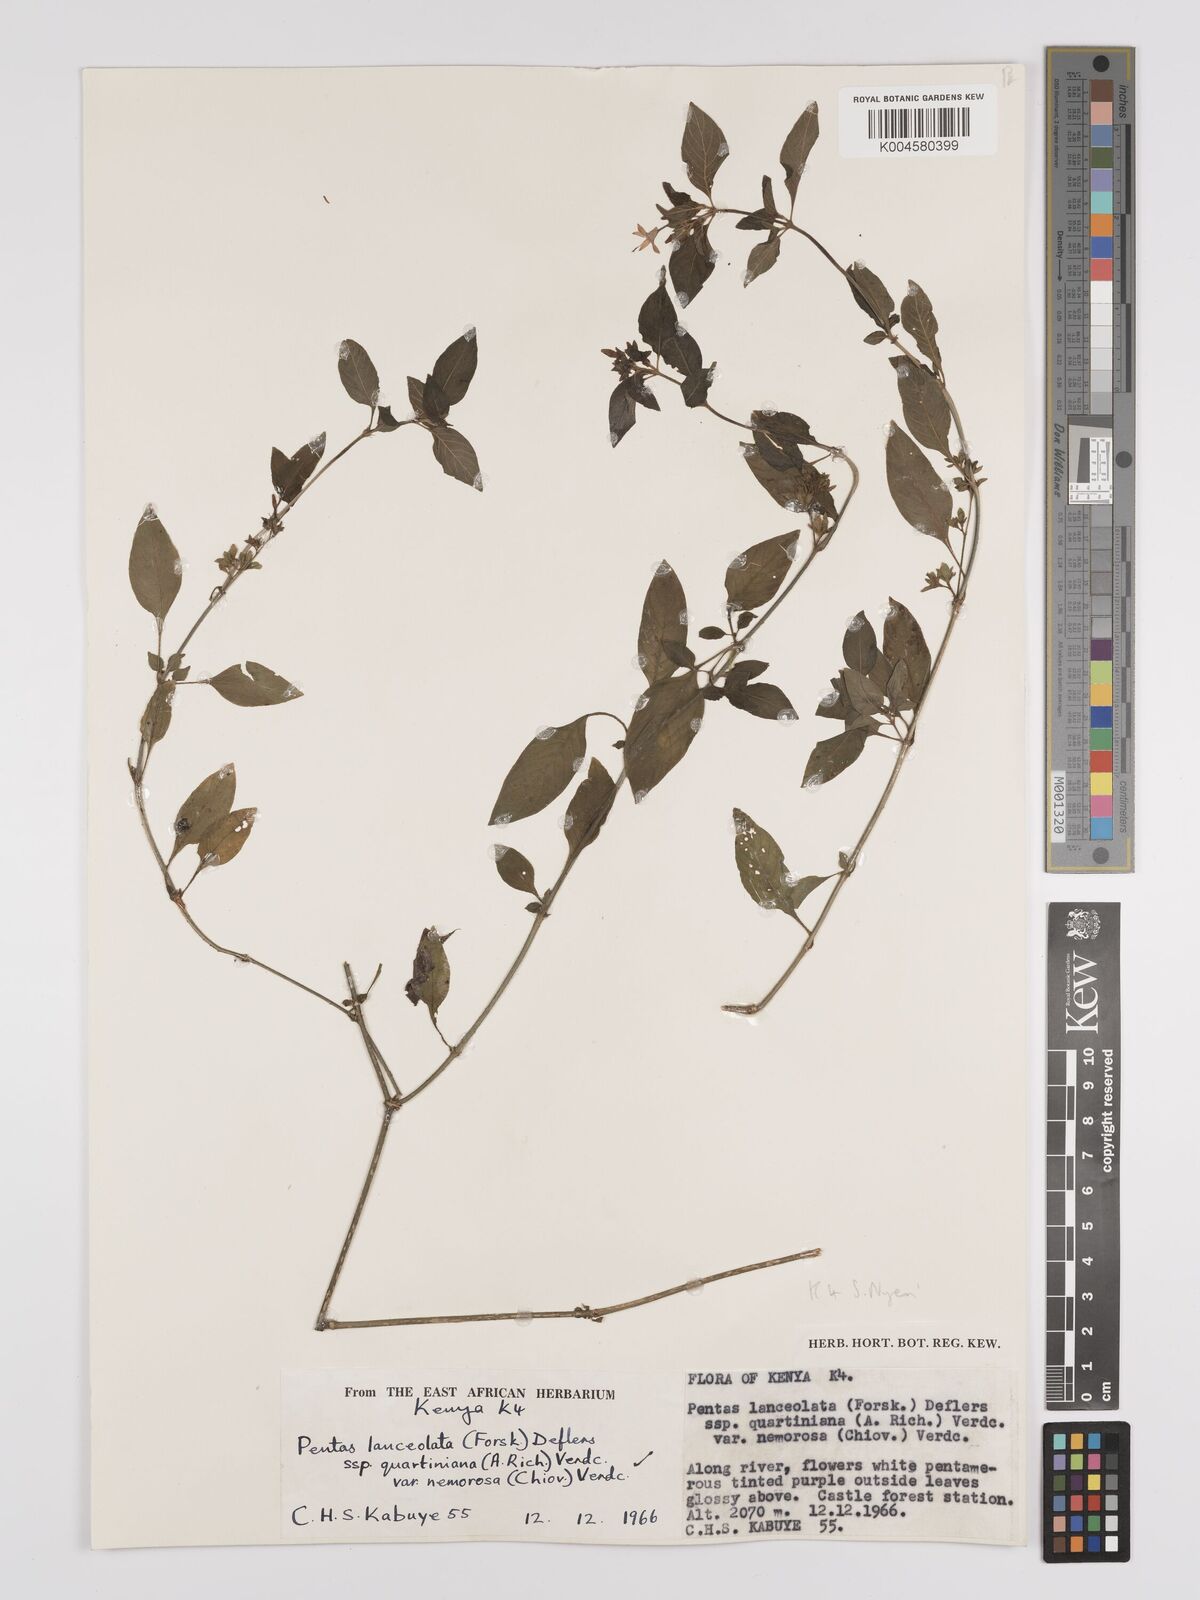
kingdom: Plantae
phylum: Tracheophyta
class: Magnoliopsida
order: Gentianales
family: Rubiaceae
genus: Pentas
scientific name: Pentas lanceolata
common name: Egyptian starcluster
